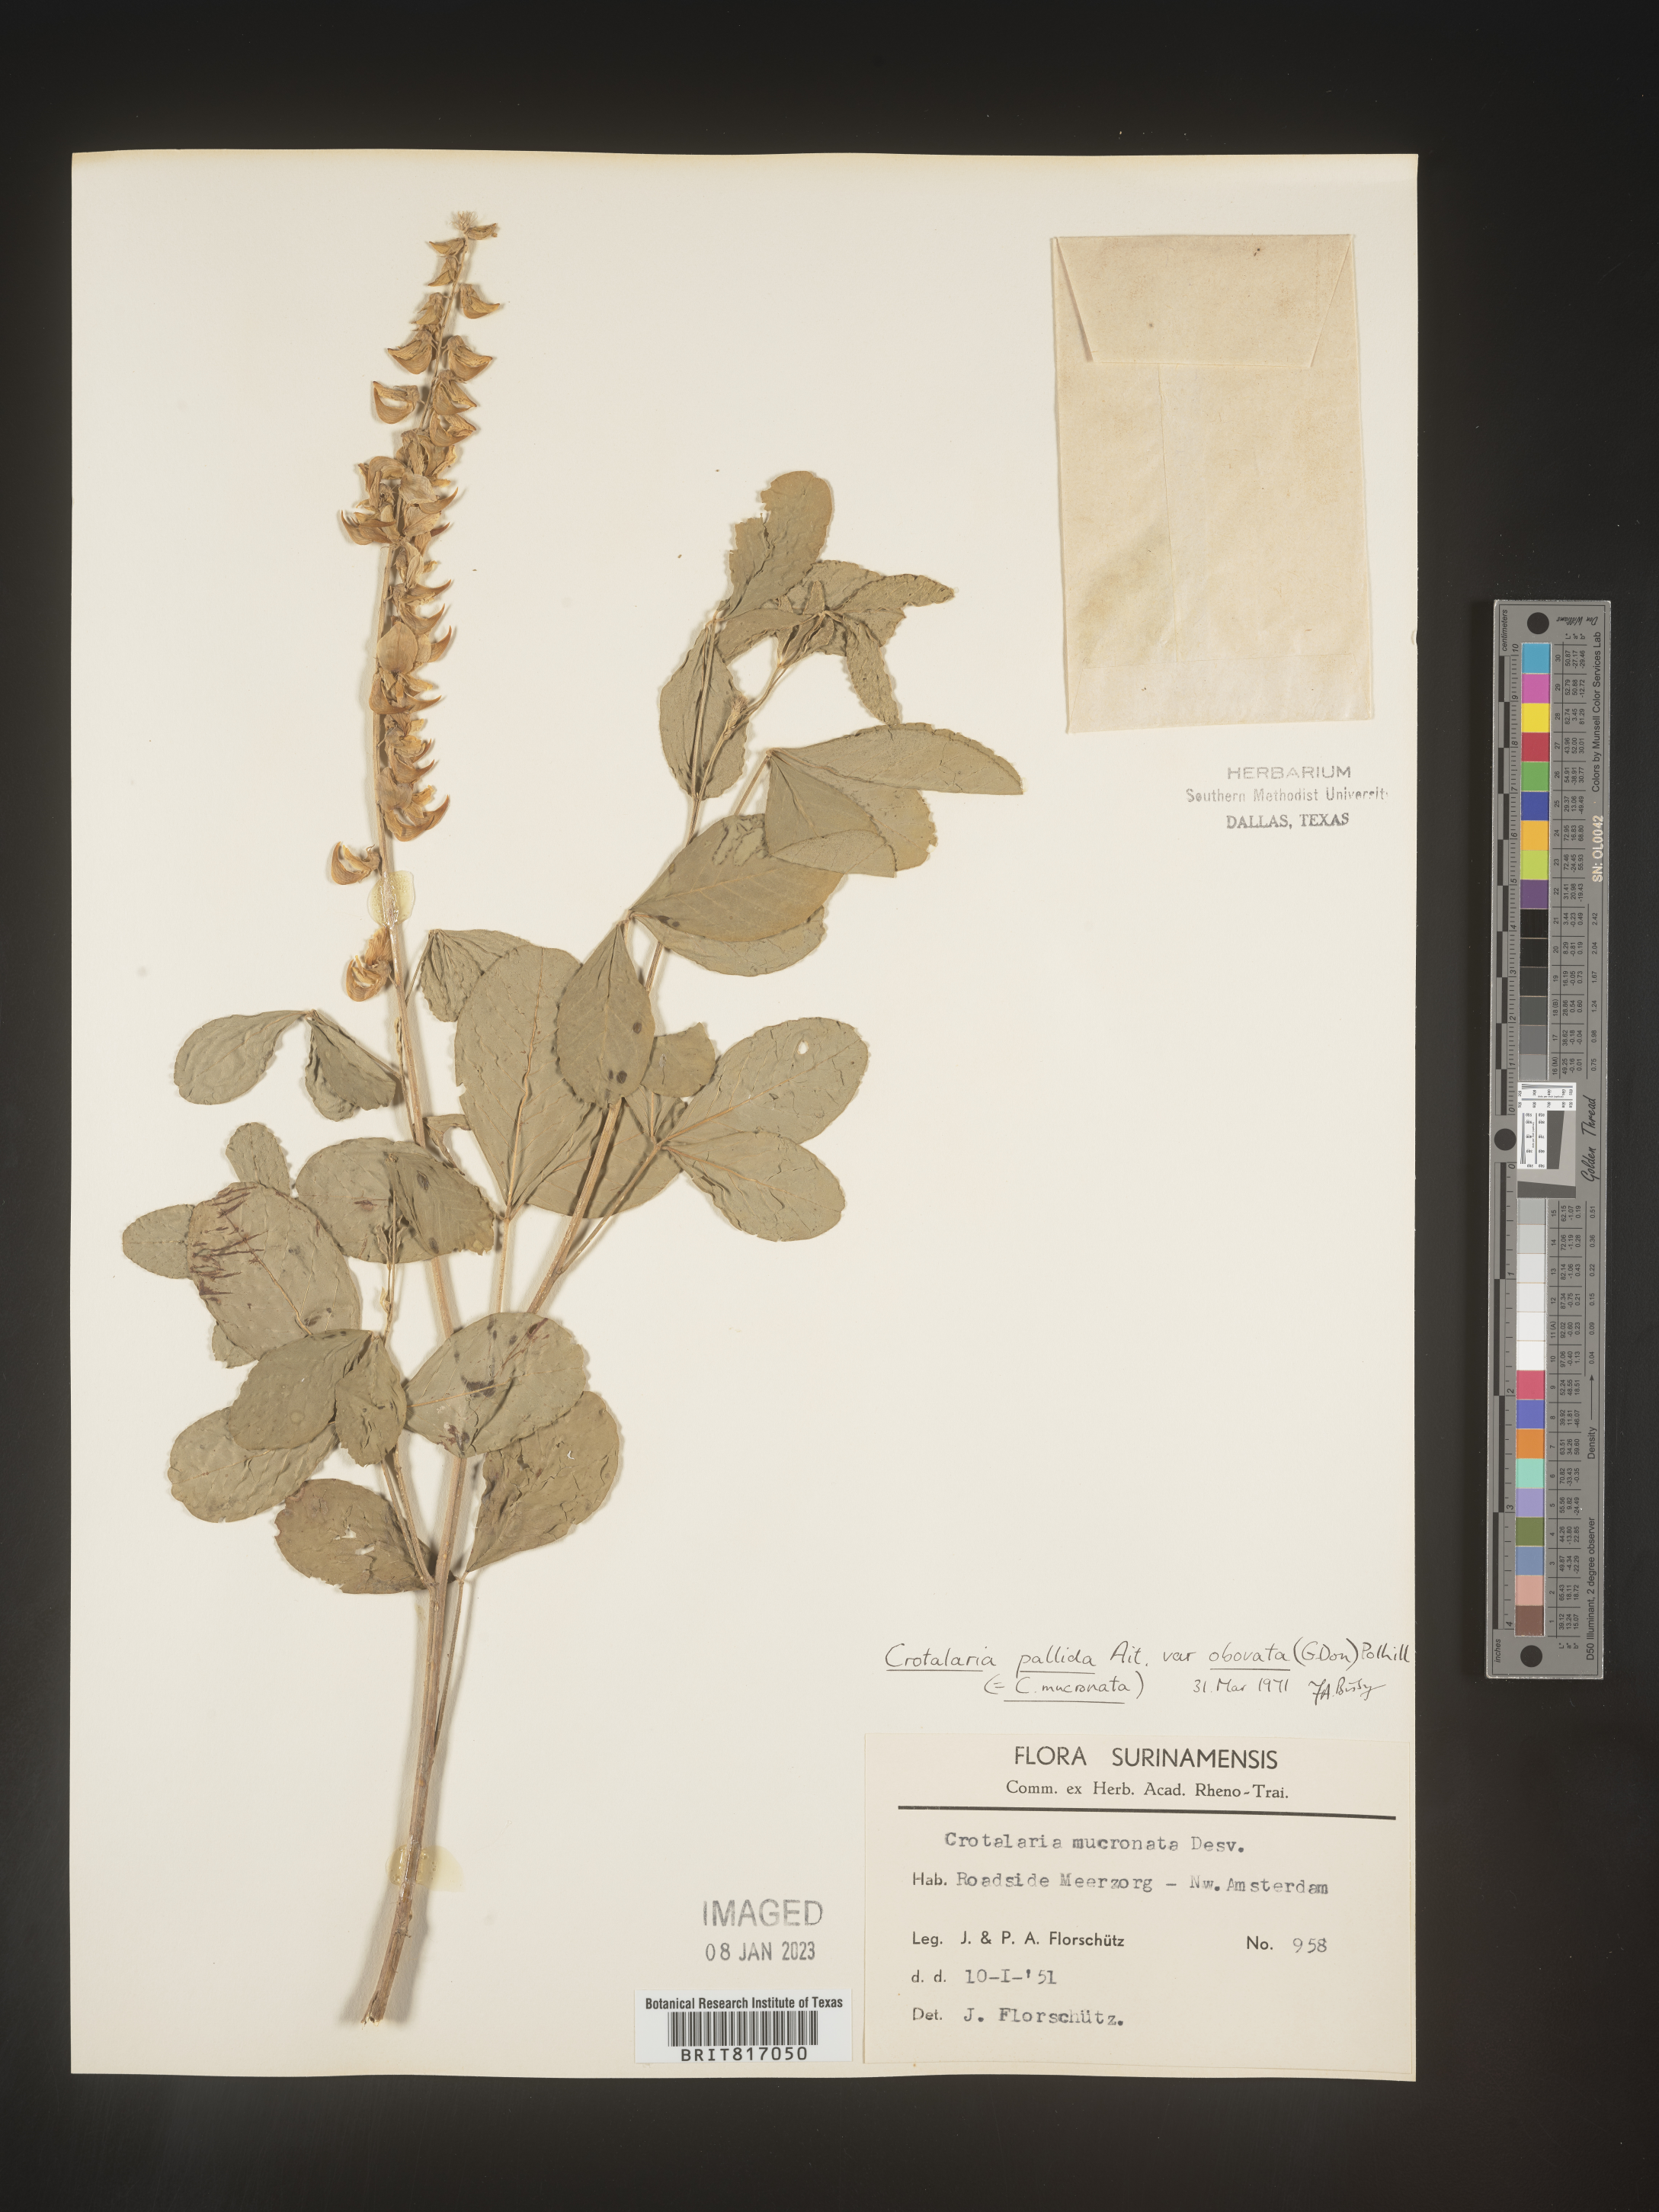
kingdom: Plantae
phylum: Tracheophyta
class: Magnoliopsida
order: Fabales
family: Fabaceae
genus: Crotalaria
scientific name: Crotalaria
